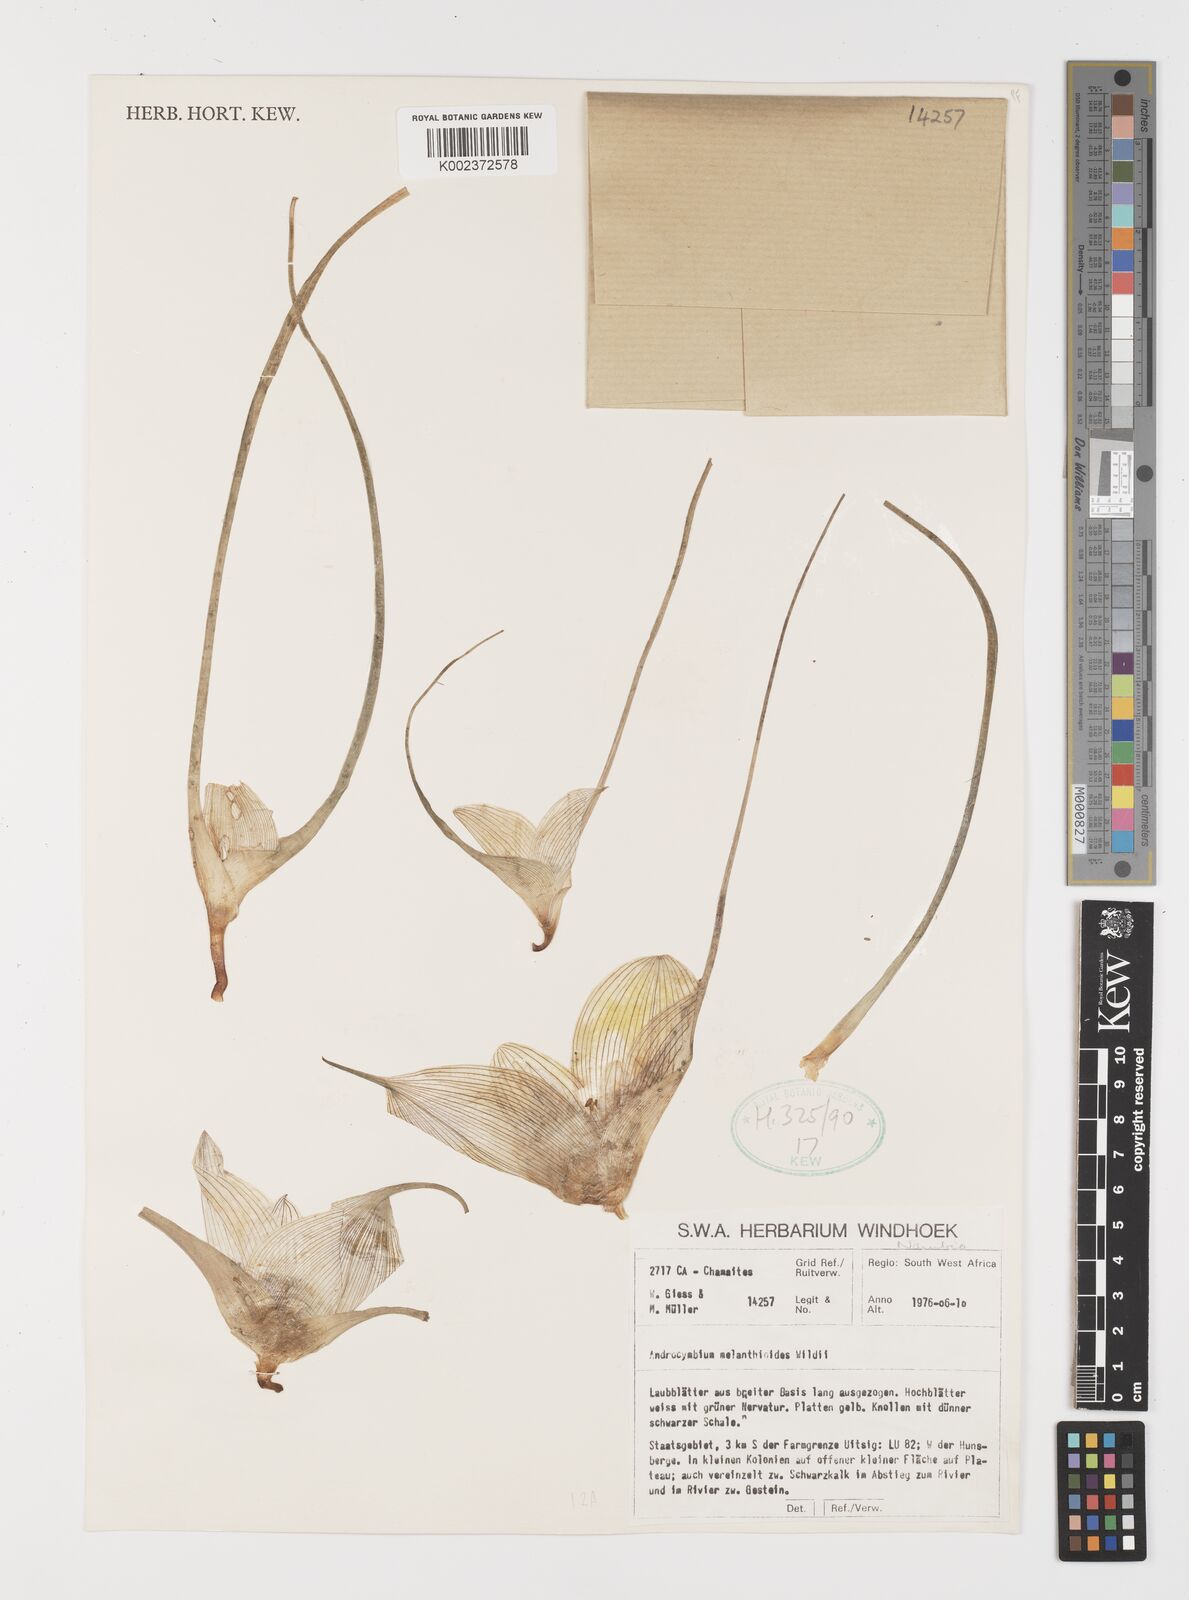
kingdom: Plantae
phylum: Tracheophyta
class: Liliopsida
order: Liliales
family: Colchicaceae
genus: Colchicum
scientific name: Colchicum melanthioides
